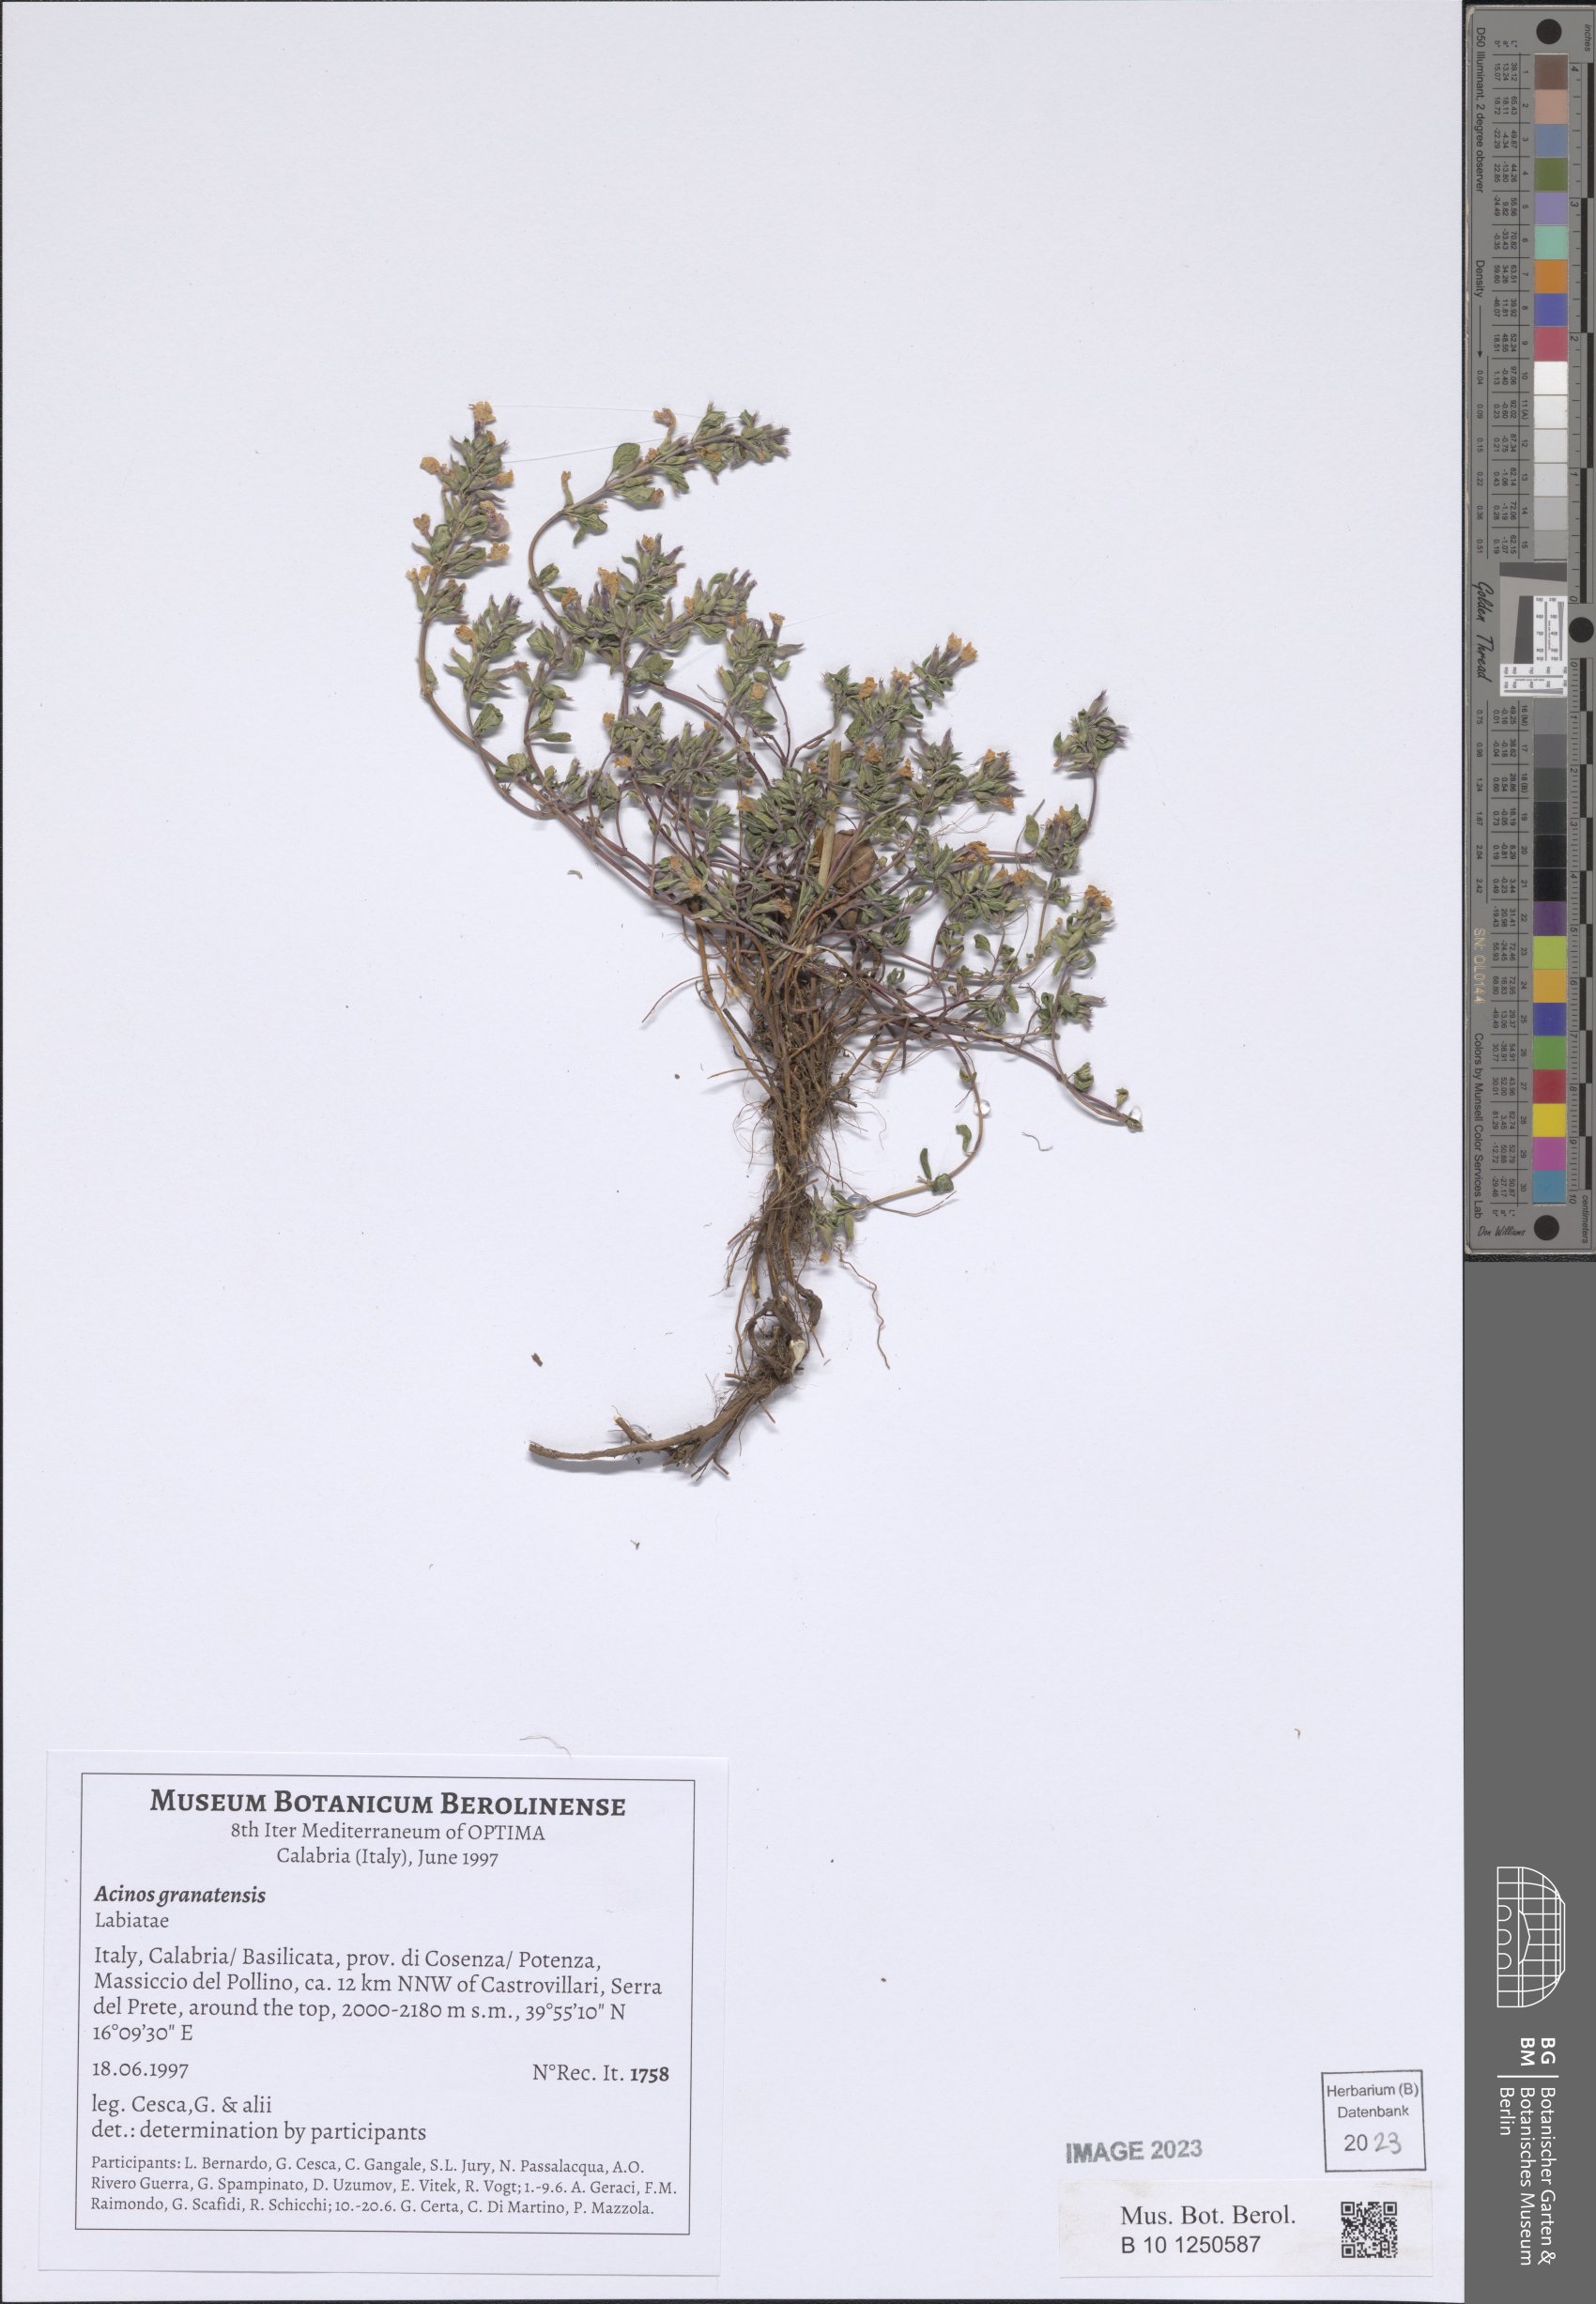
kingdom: Plantae
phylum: Tracheophyta
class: Magnoliopsida
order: Lamiales
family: Lamiaceae
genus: Clinopodium
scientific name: Clinopodium alpinum
